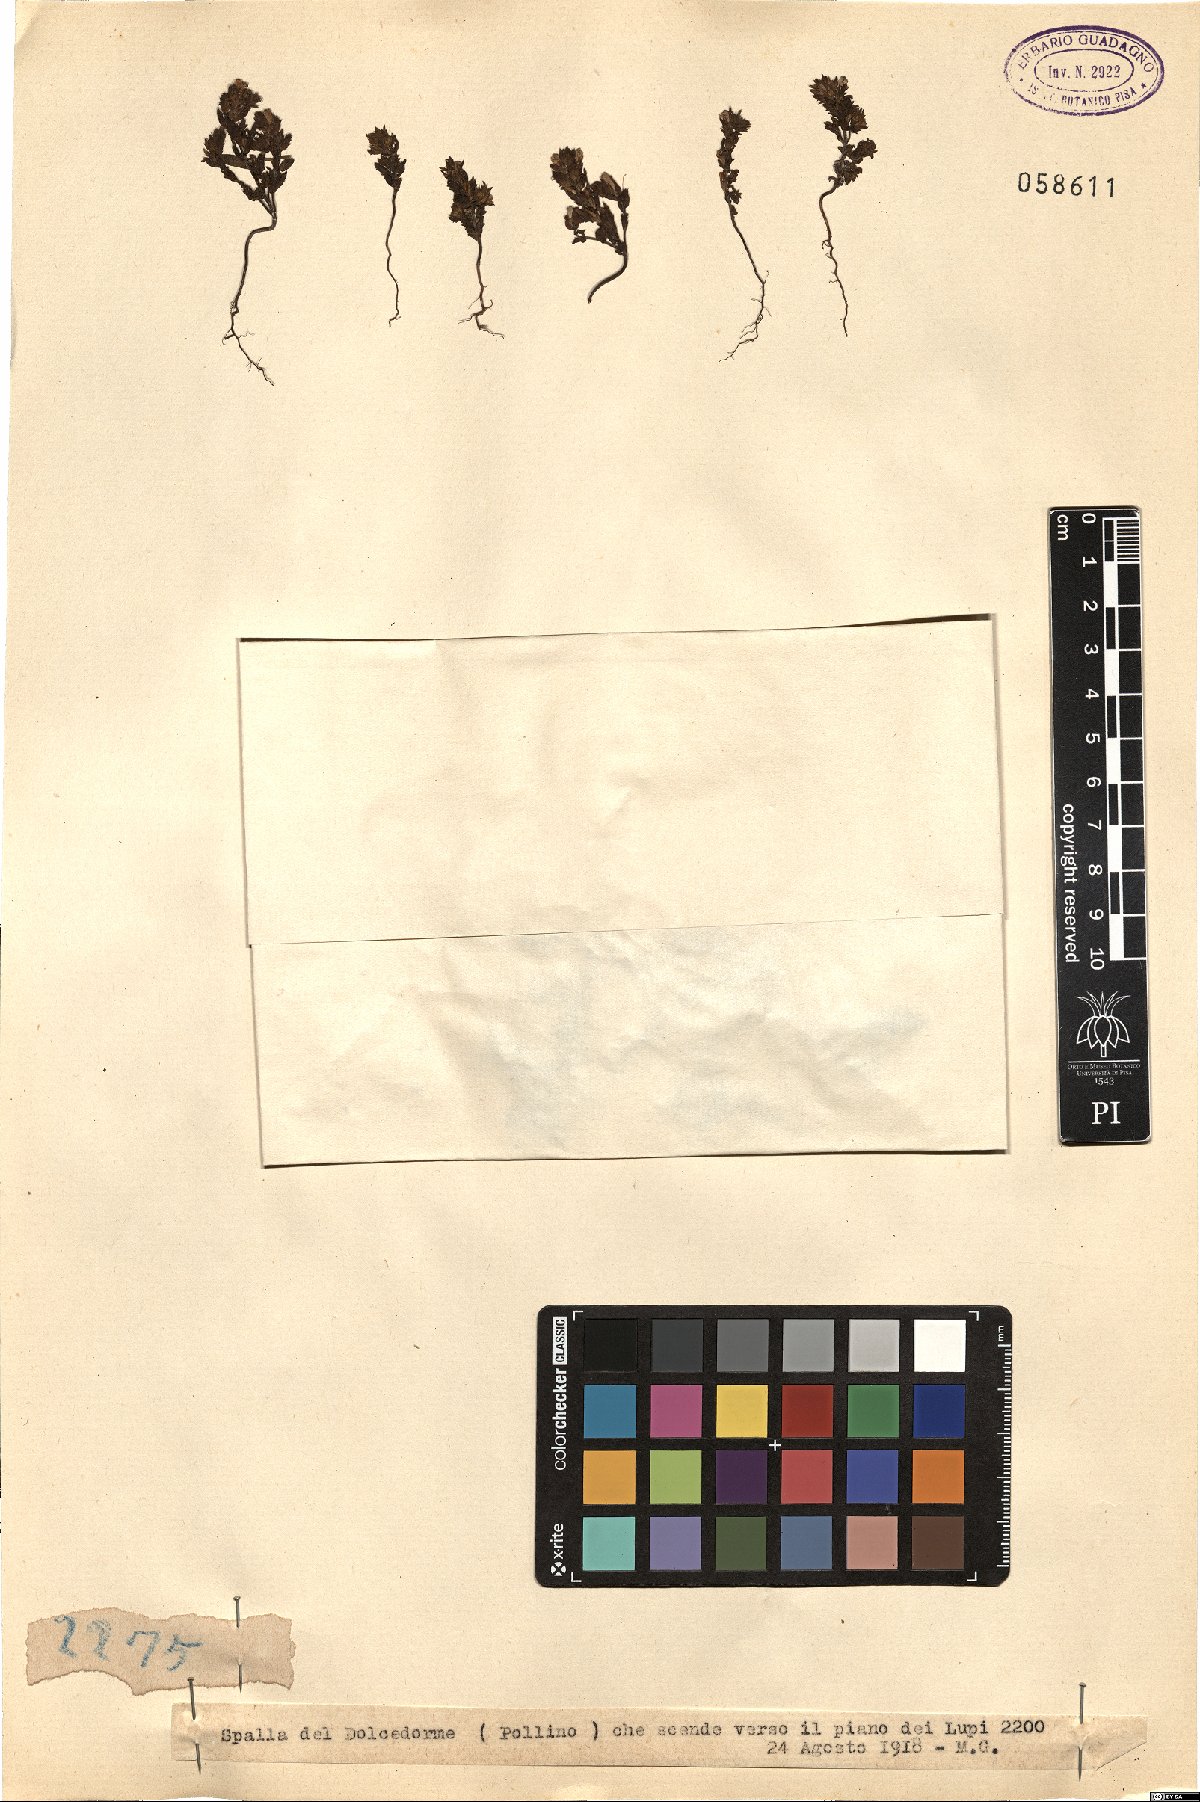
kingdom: Plantae
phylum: Tracheophyta
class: Magnoliopsida
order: Lamiales
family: Orobanchaceae
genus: Euphrasia
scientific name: Euphrasia
